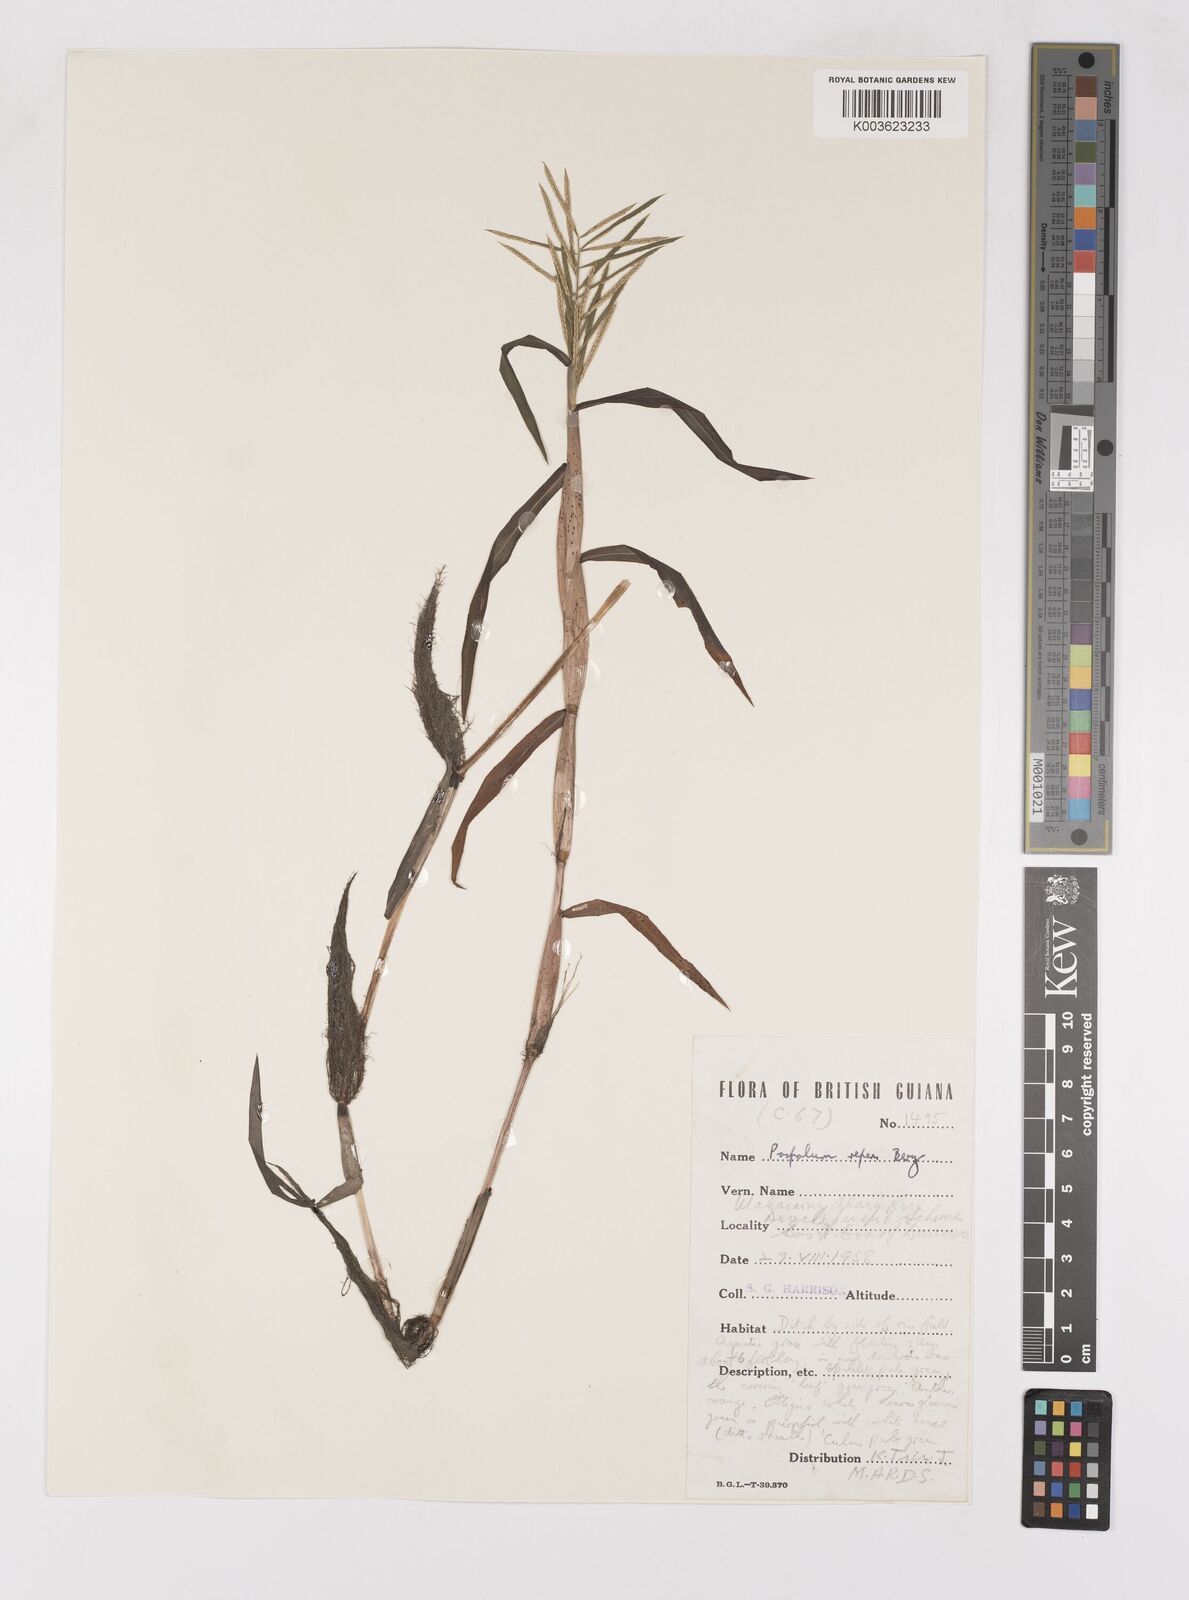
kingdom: Plantae
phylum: Tracheophyta
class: Liliopsida
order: Poales
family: Poaceae
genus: Paspalum
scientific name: Paspalum repens
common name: Water paspalum
